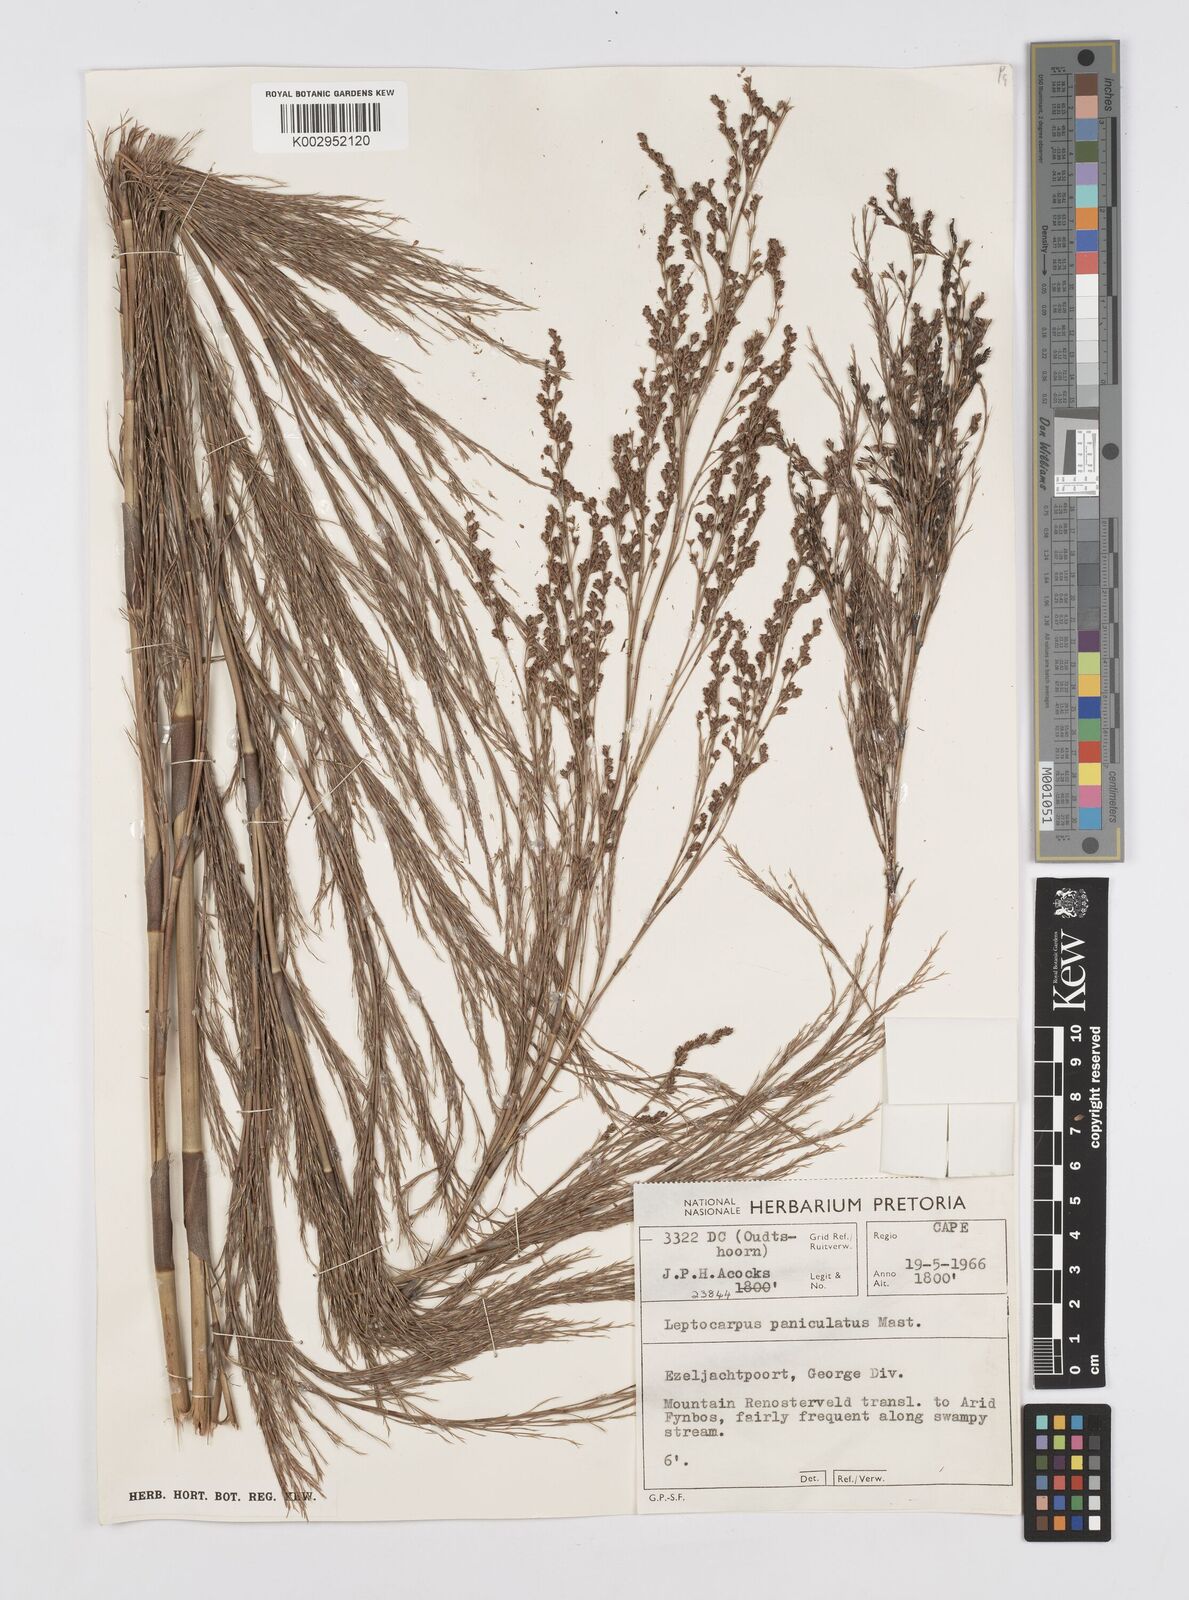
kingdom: Plantae
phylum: Tracheophyta
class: Liliopsida
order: Poales
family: Restionaceae
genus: Restio
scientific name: Restio
